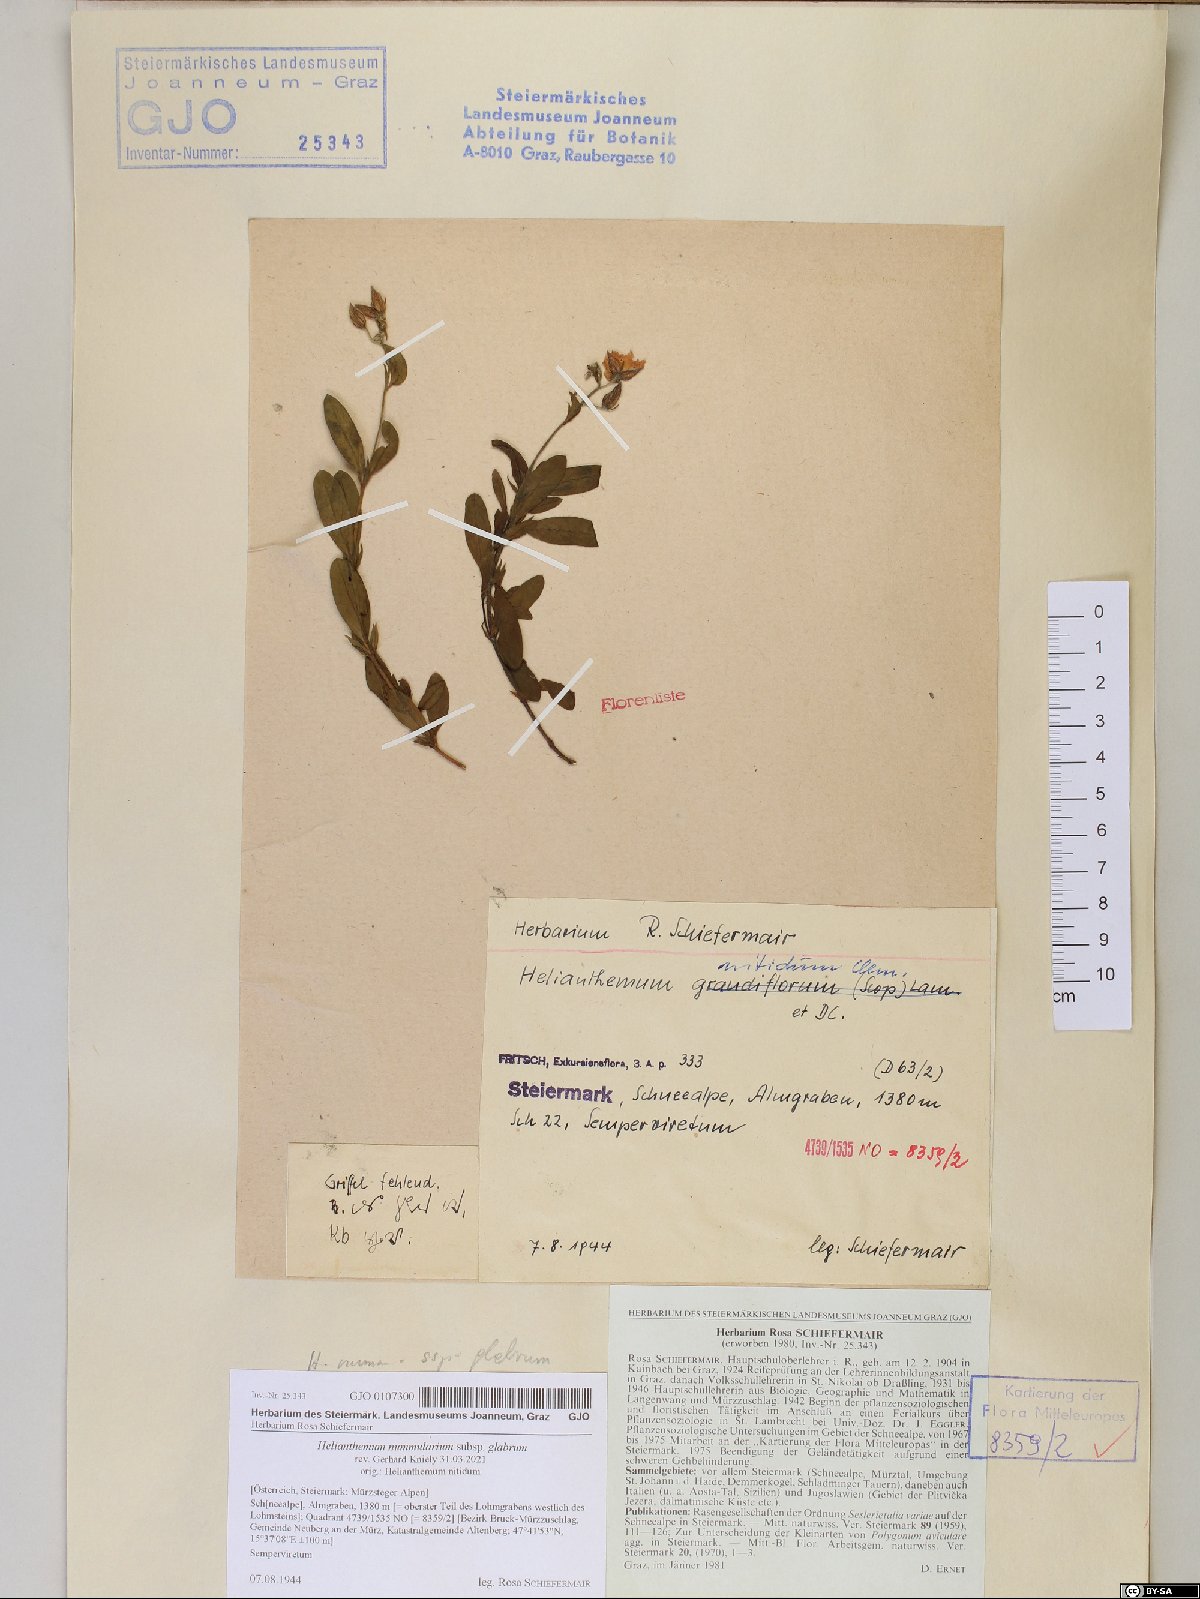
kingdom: Plantae
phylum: Tracheophyta
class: Magnoliopsida
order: Malvales
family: Cistaceae
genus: Helianthemum
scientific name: Helianthemum nummularium
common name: Common rock-rose
